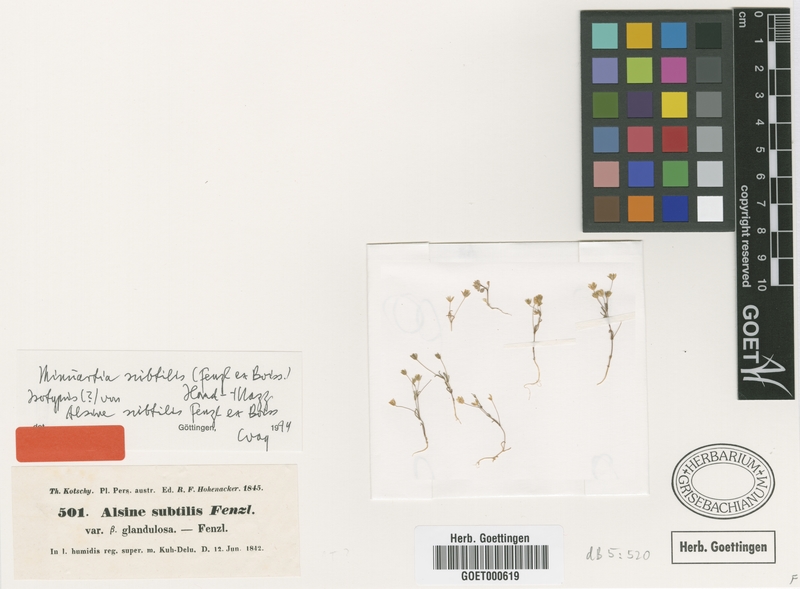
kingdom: Plantae
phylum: Tracheophyta
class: Magnoliopsida
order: Caryophyllales
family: Caryophyllaceae
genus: Sabulina
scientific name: Sabulina subtilis
